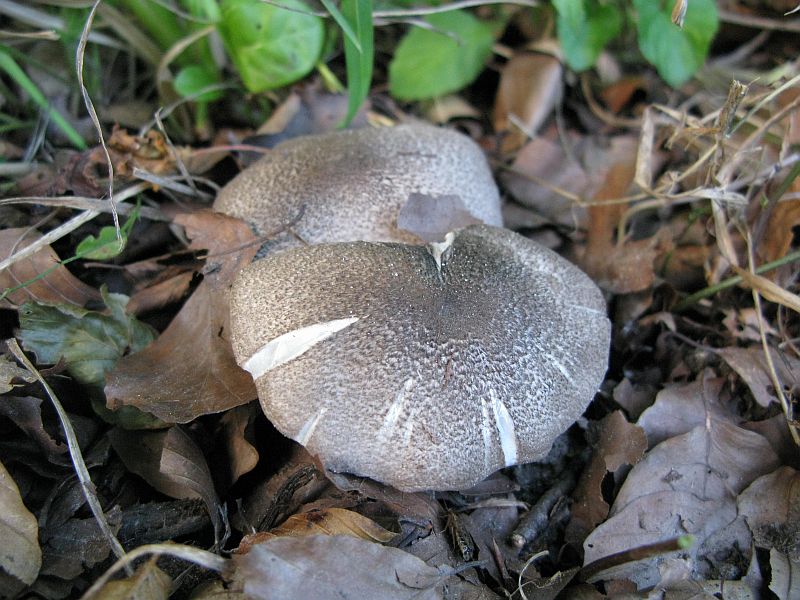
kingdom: Fungi
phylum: Basidiomycota
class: Agaricomycetes
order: Agaricales
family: Tricholomataceae
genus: Tricholoma
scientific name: Tricholoma scalpturatum
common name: gulplettet ridderhat
